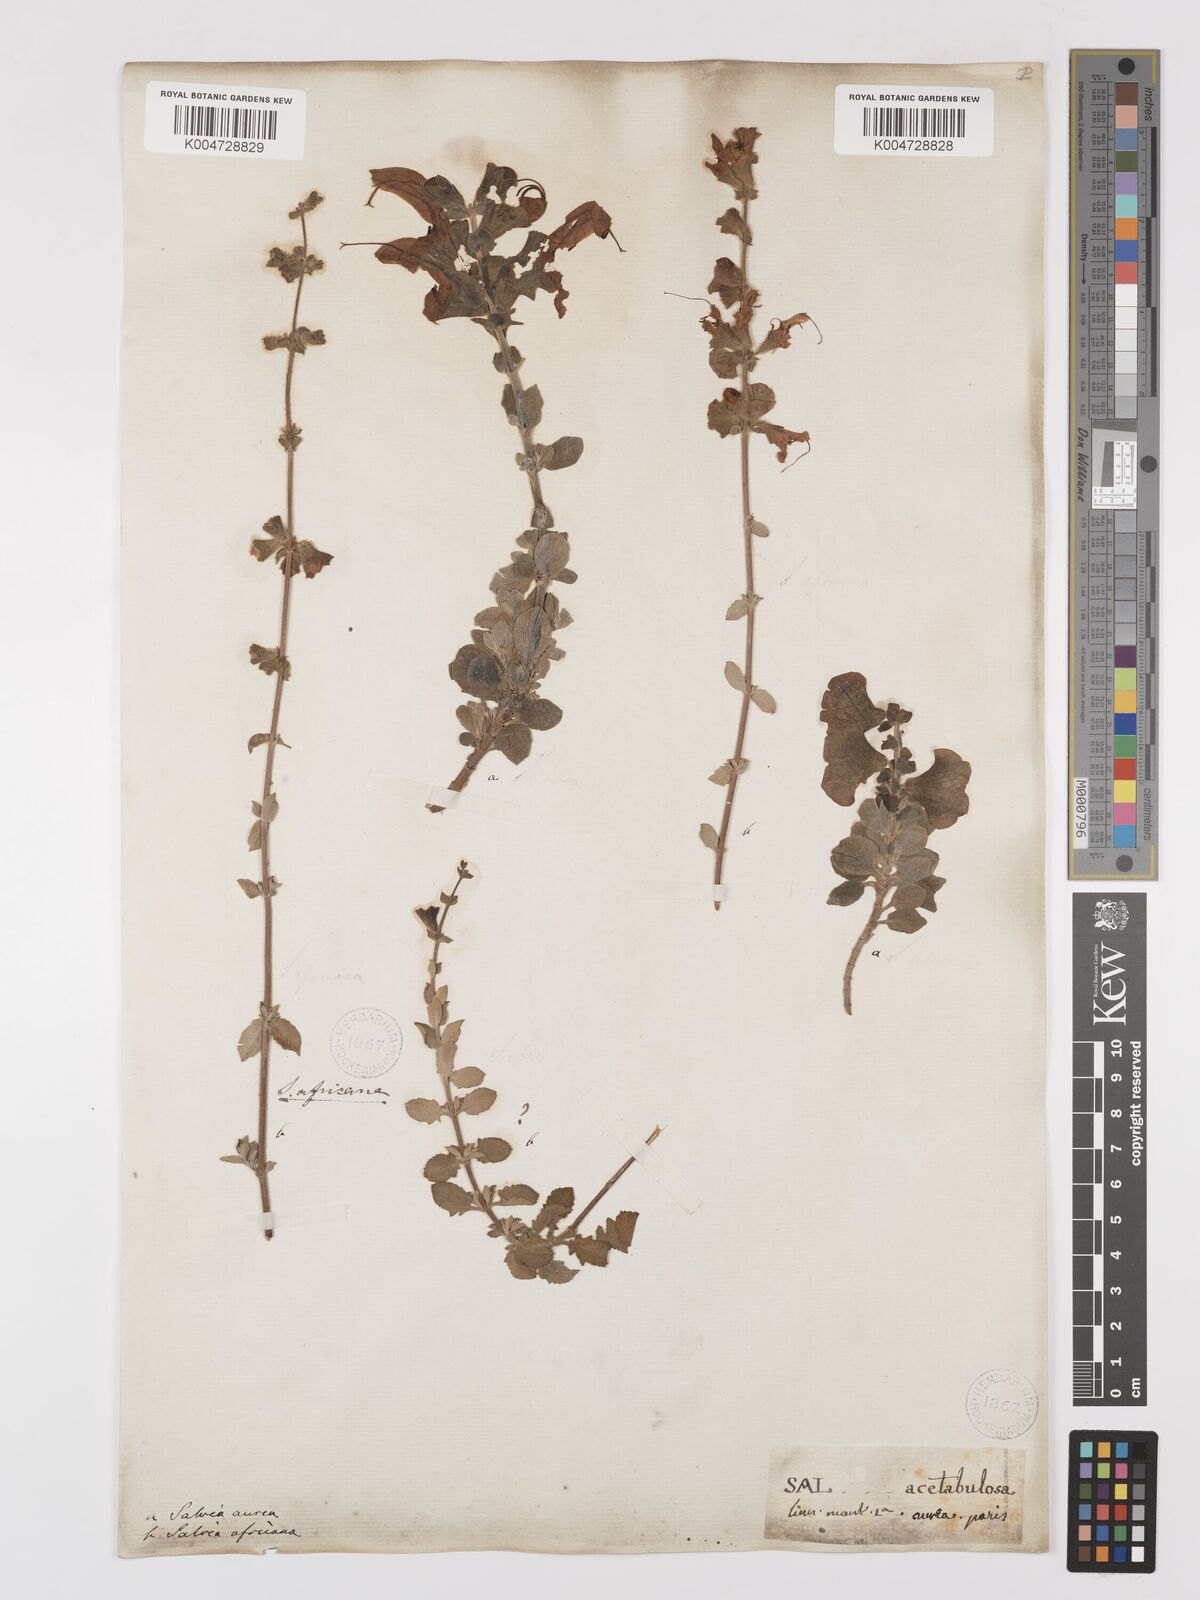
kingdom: Plantae
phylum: Tracheophyta
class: Magnoliopsida
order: Lamiales
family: Lamiaceae
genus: Salvia
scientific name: Salvia aurea
